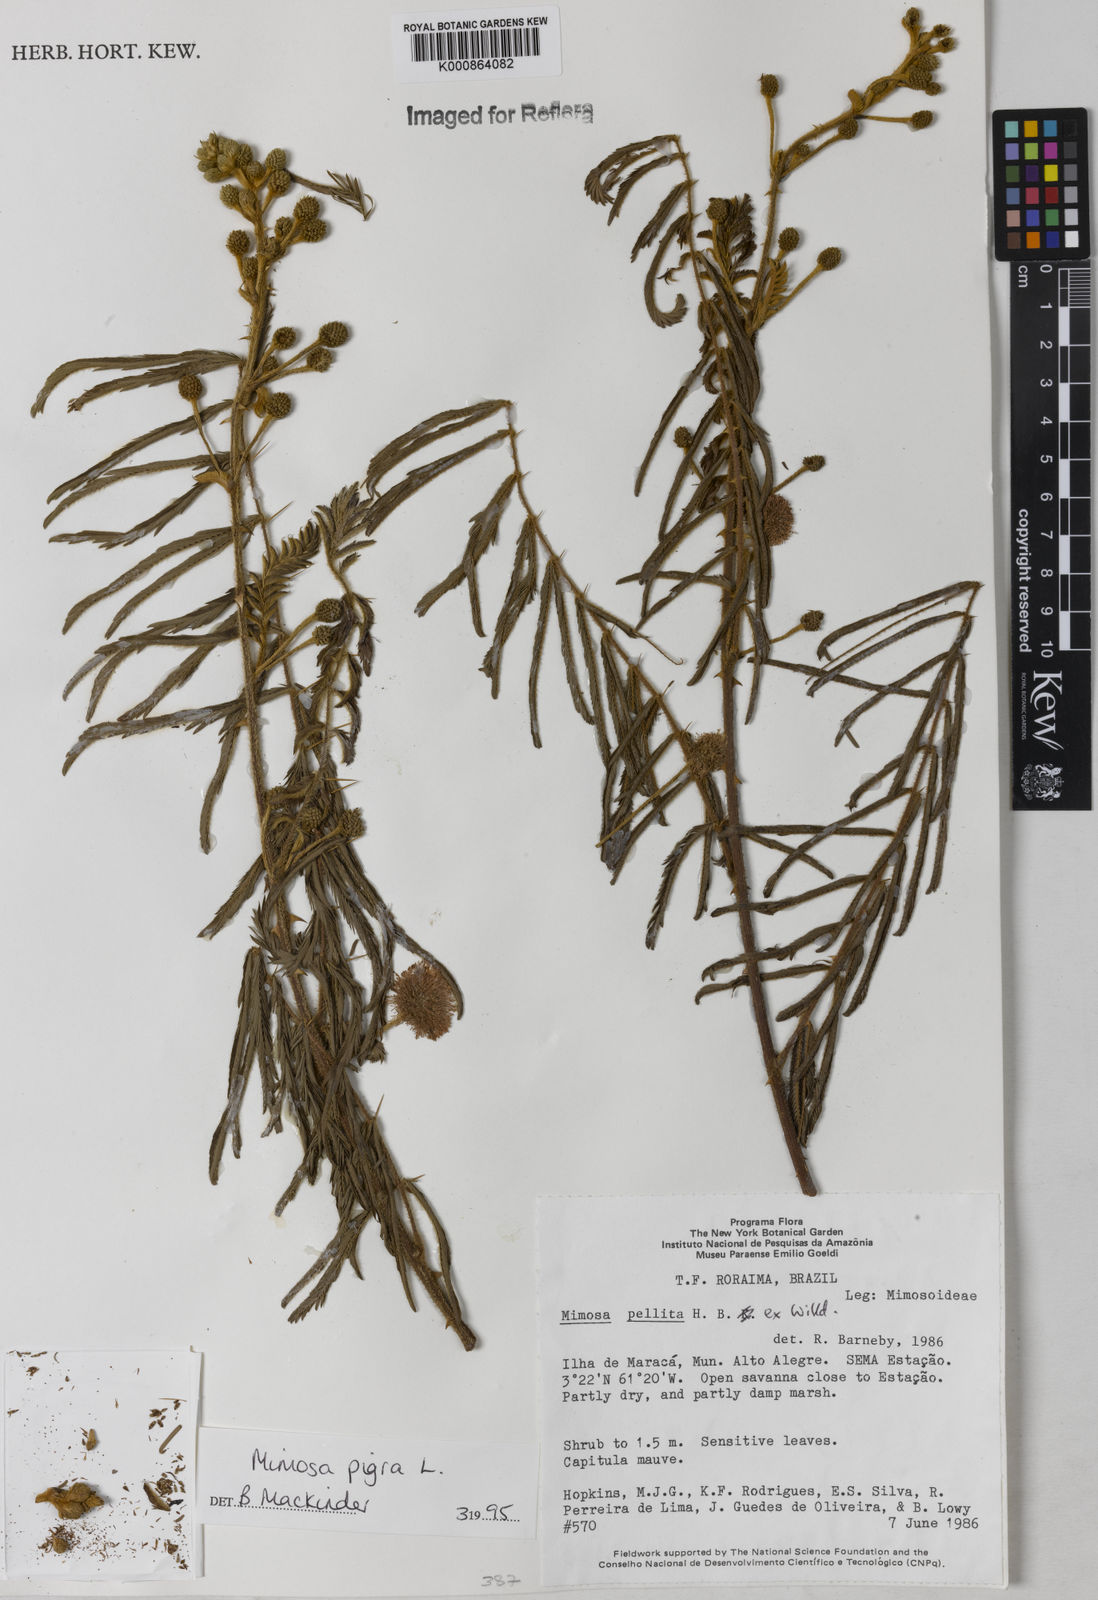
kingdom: Plantae
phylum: Tracheophyta
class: Magnoliopsida
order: Fabales
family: Fabaceae
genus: Mimosa
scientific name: Mimosa pigra
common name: Black mimosa
